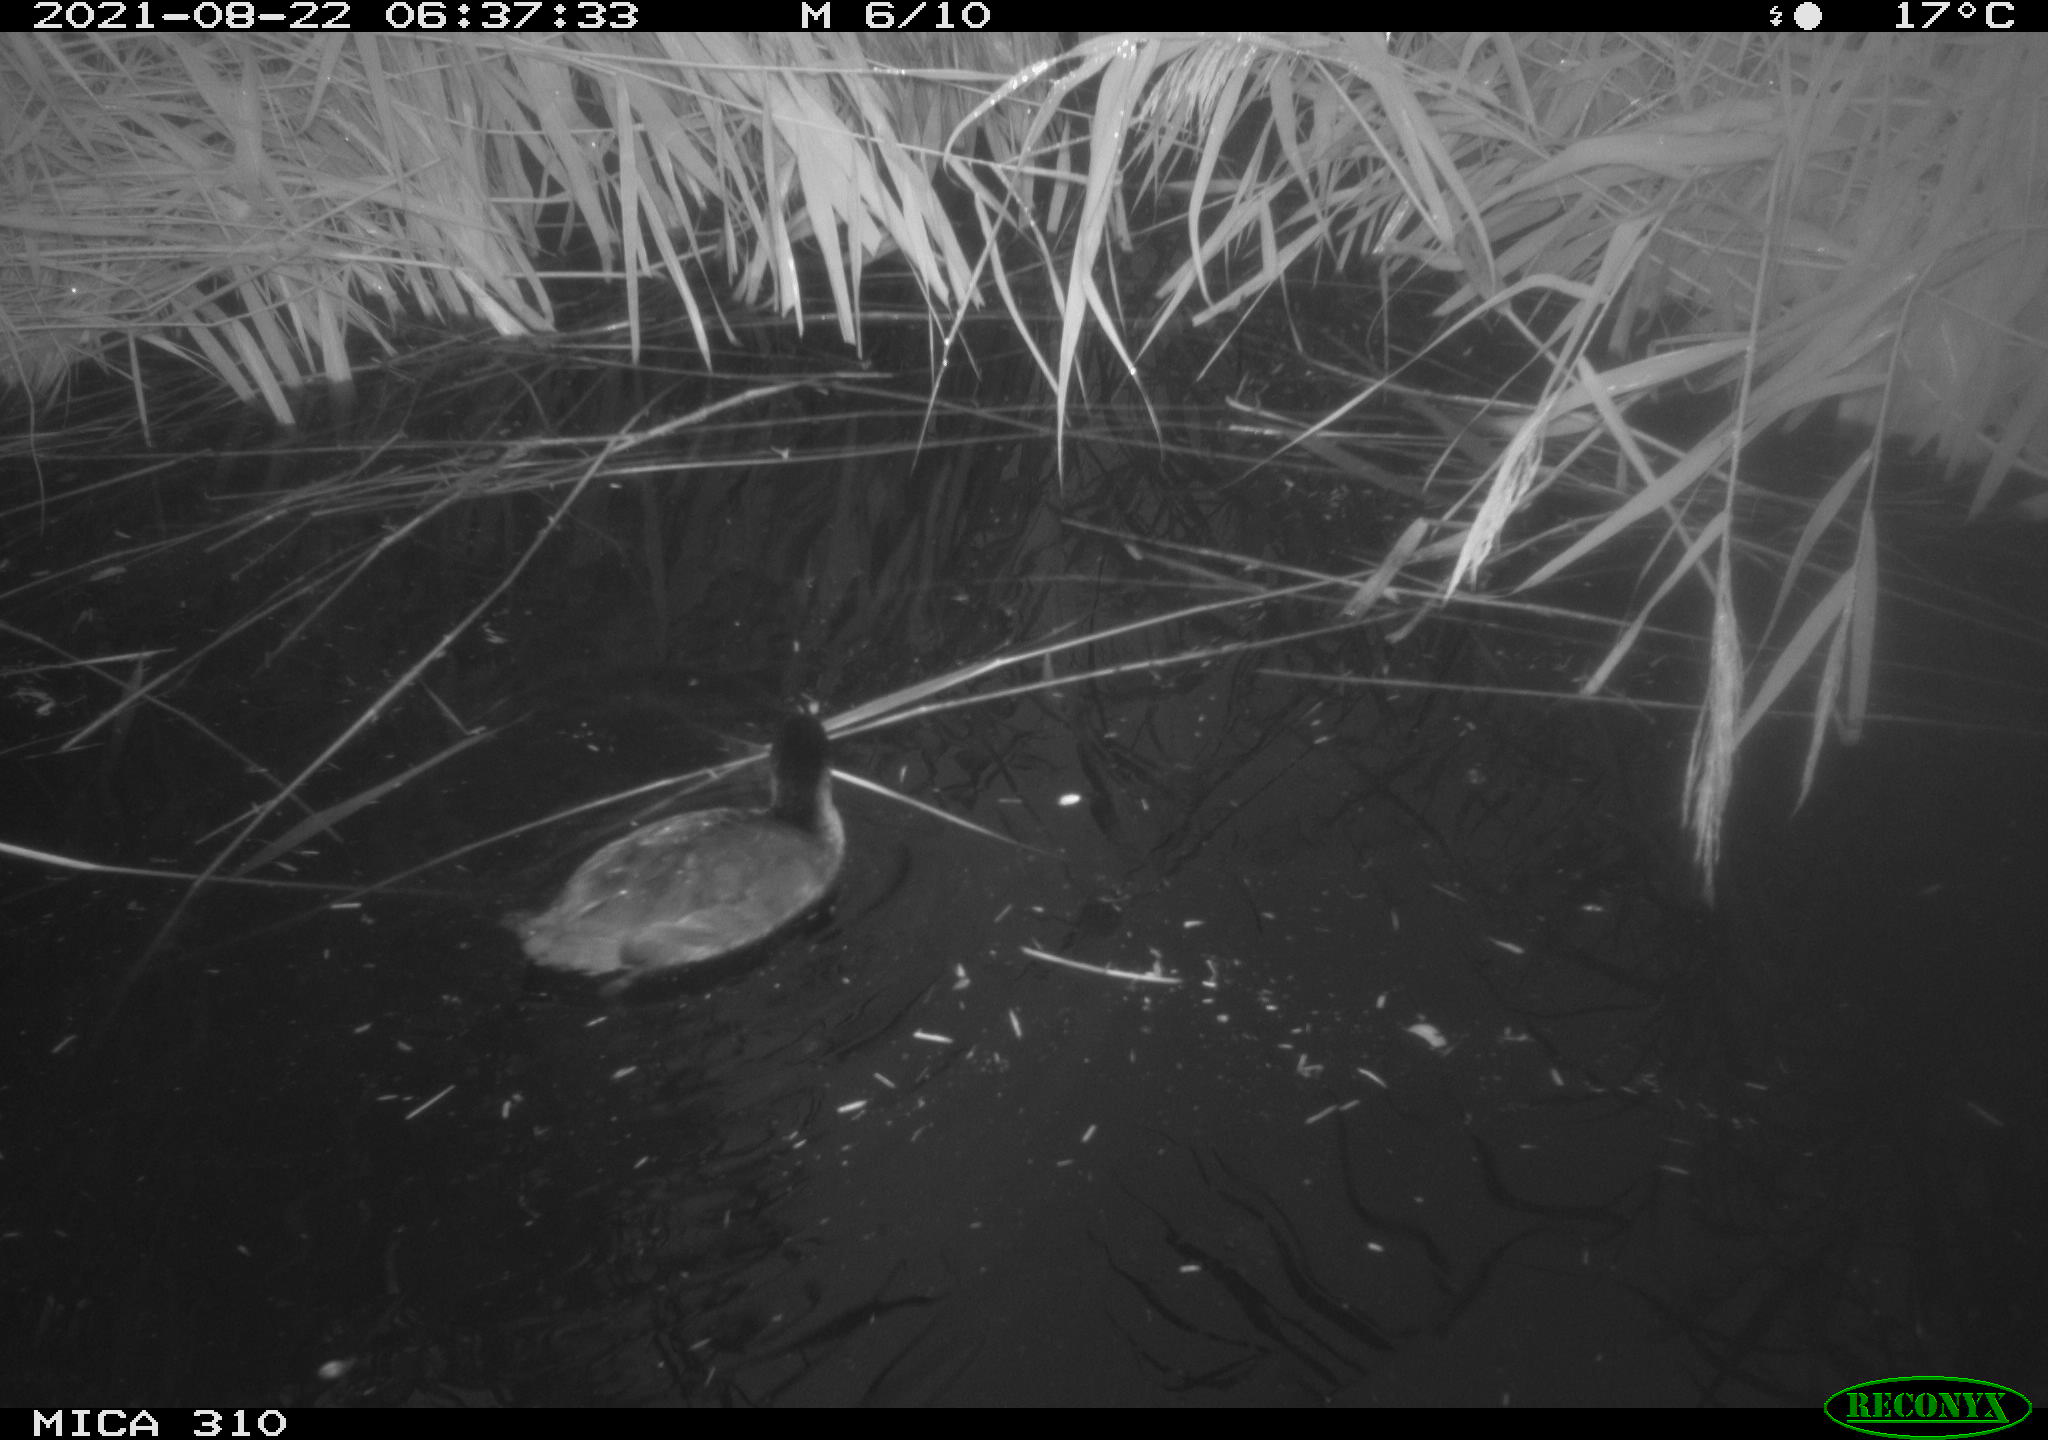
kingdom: Animalia
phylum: Chordata
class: Aves
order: Gruiformes
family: Rallidae
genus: Fulica
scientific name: Fulica atra
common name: Eurasian coot
